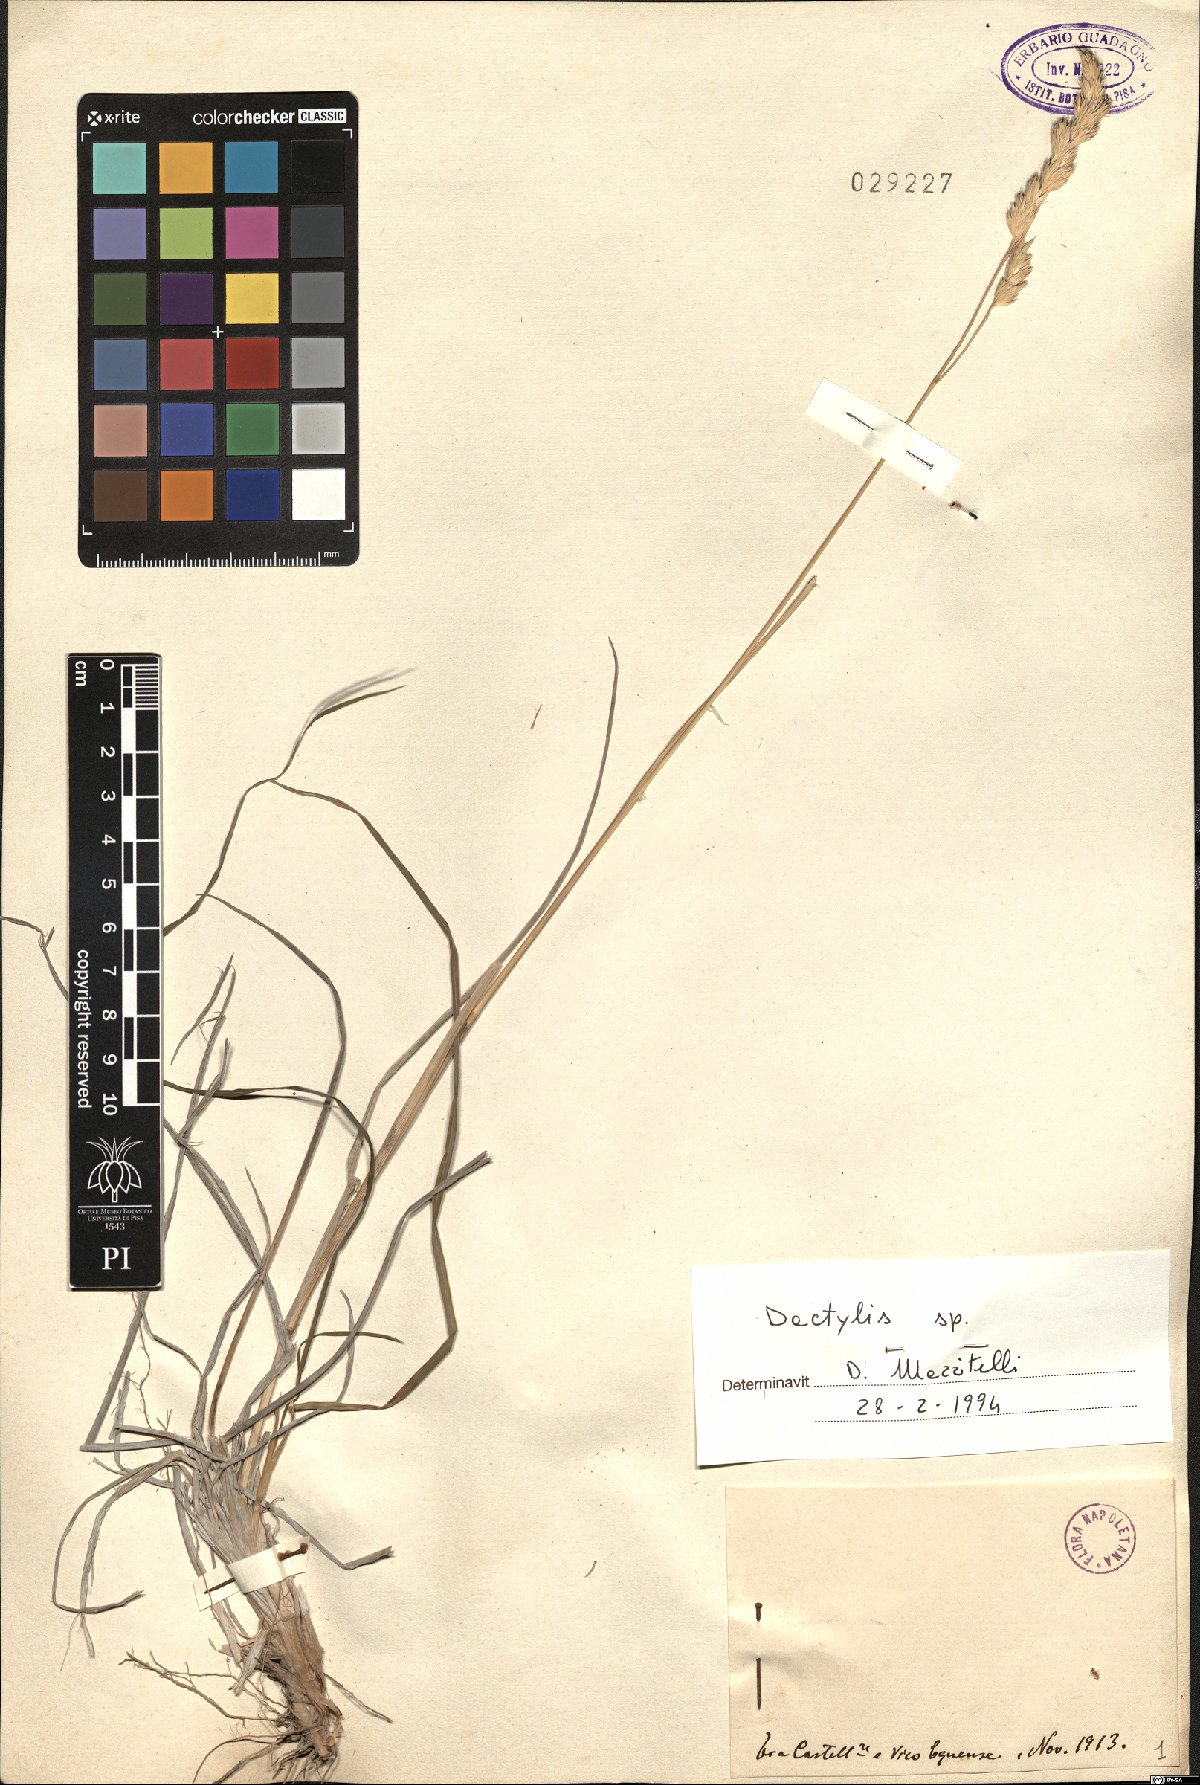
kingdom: Plantae
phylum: Tracheophyta
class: Liliopsida
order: Poales
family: Poaceae
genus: Dactylis
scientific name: Dactylis
